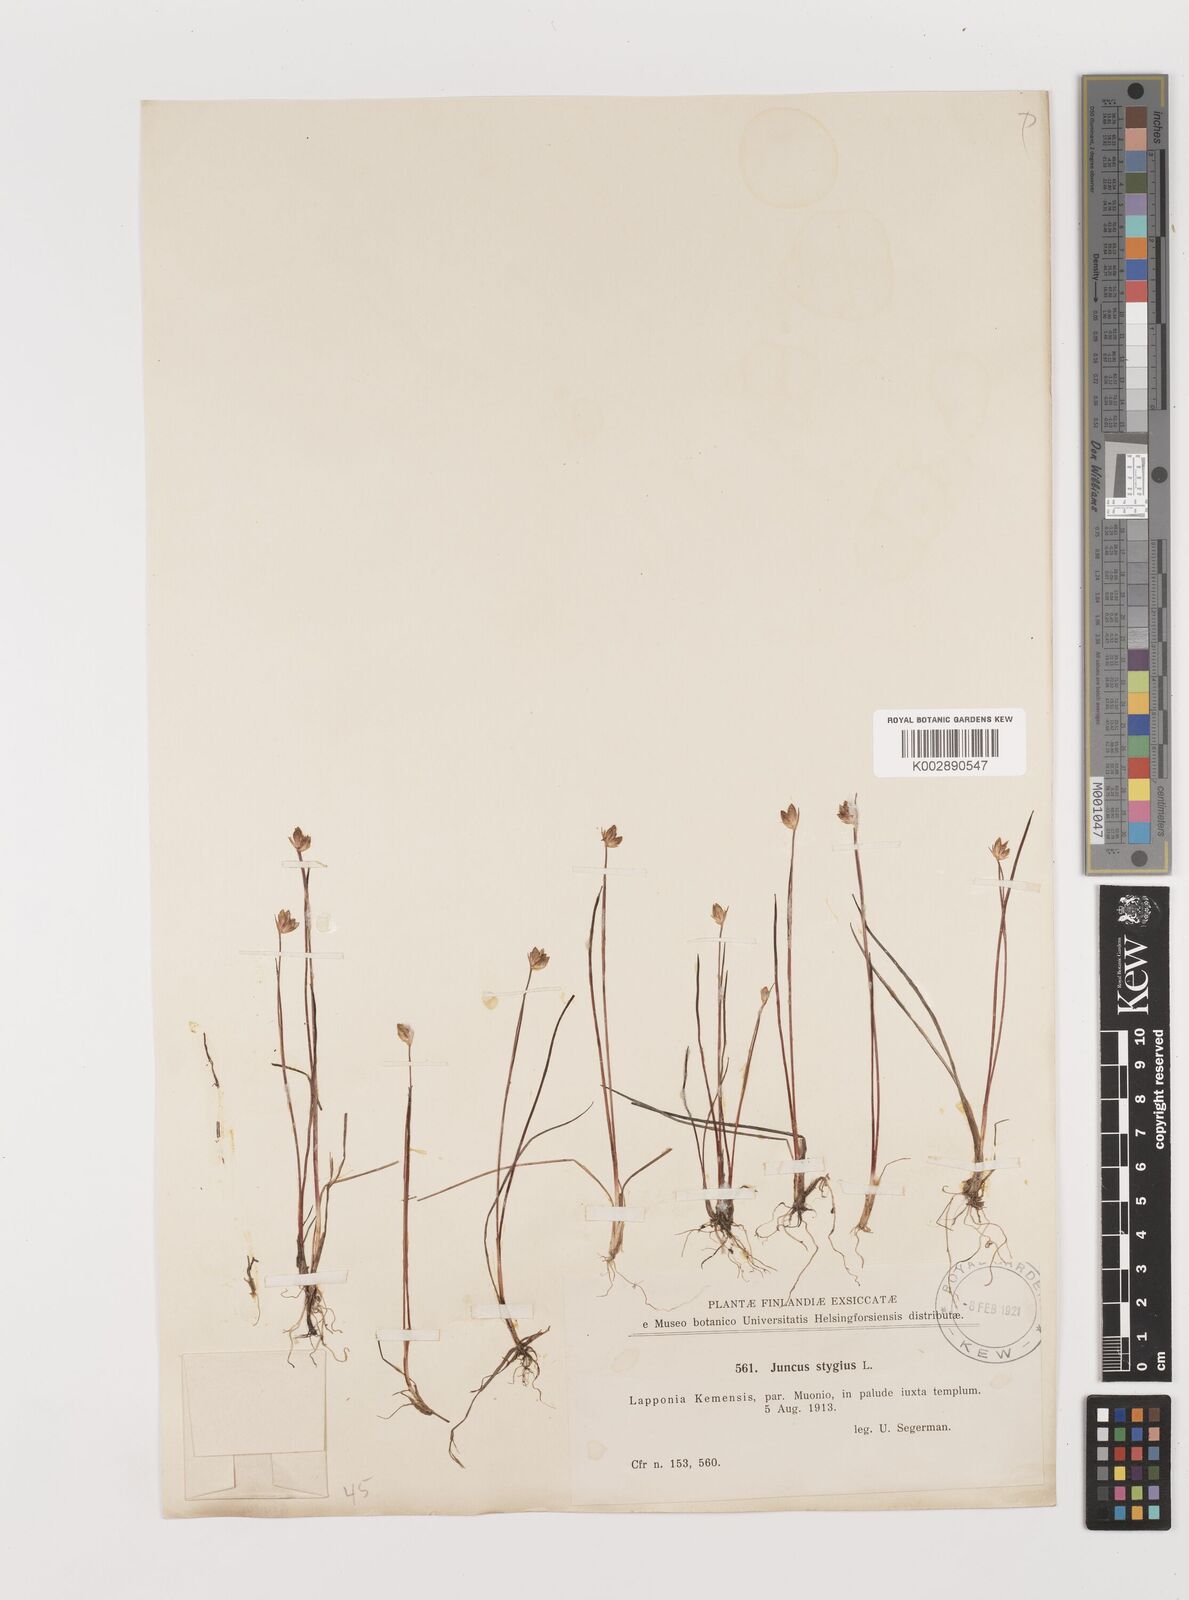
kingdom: Plantae
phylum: Tracheophyta
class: Liliopsida
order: Poales
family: Juncaceae
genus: Juncus
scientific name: Juncus stygius
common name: Bog rush
